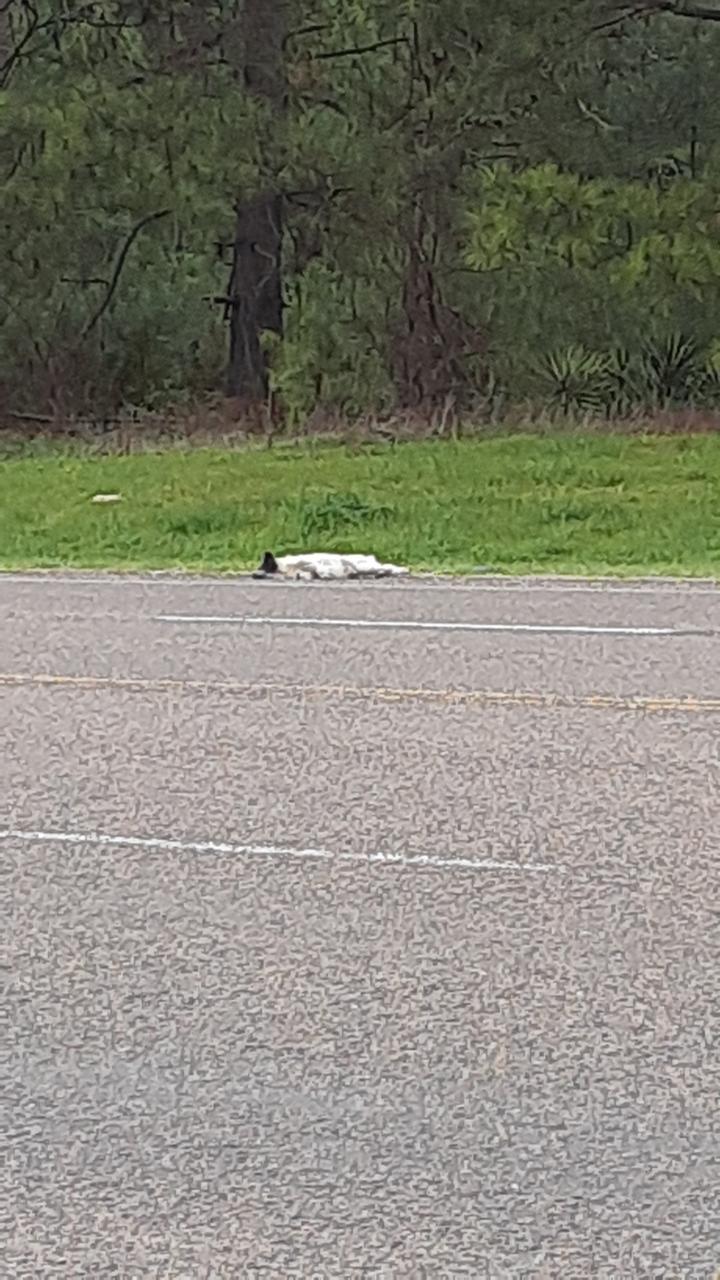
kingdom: Animalia
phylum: Chordata
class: Mammalia
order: Carnivora
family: Canidae
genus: Canis
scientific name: Canis lupus
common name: Gray wolf
